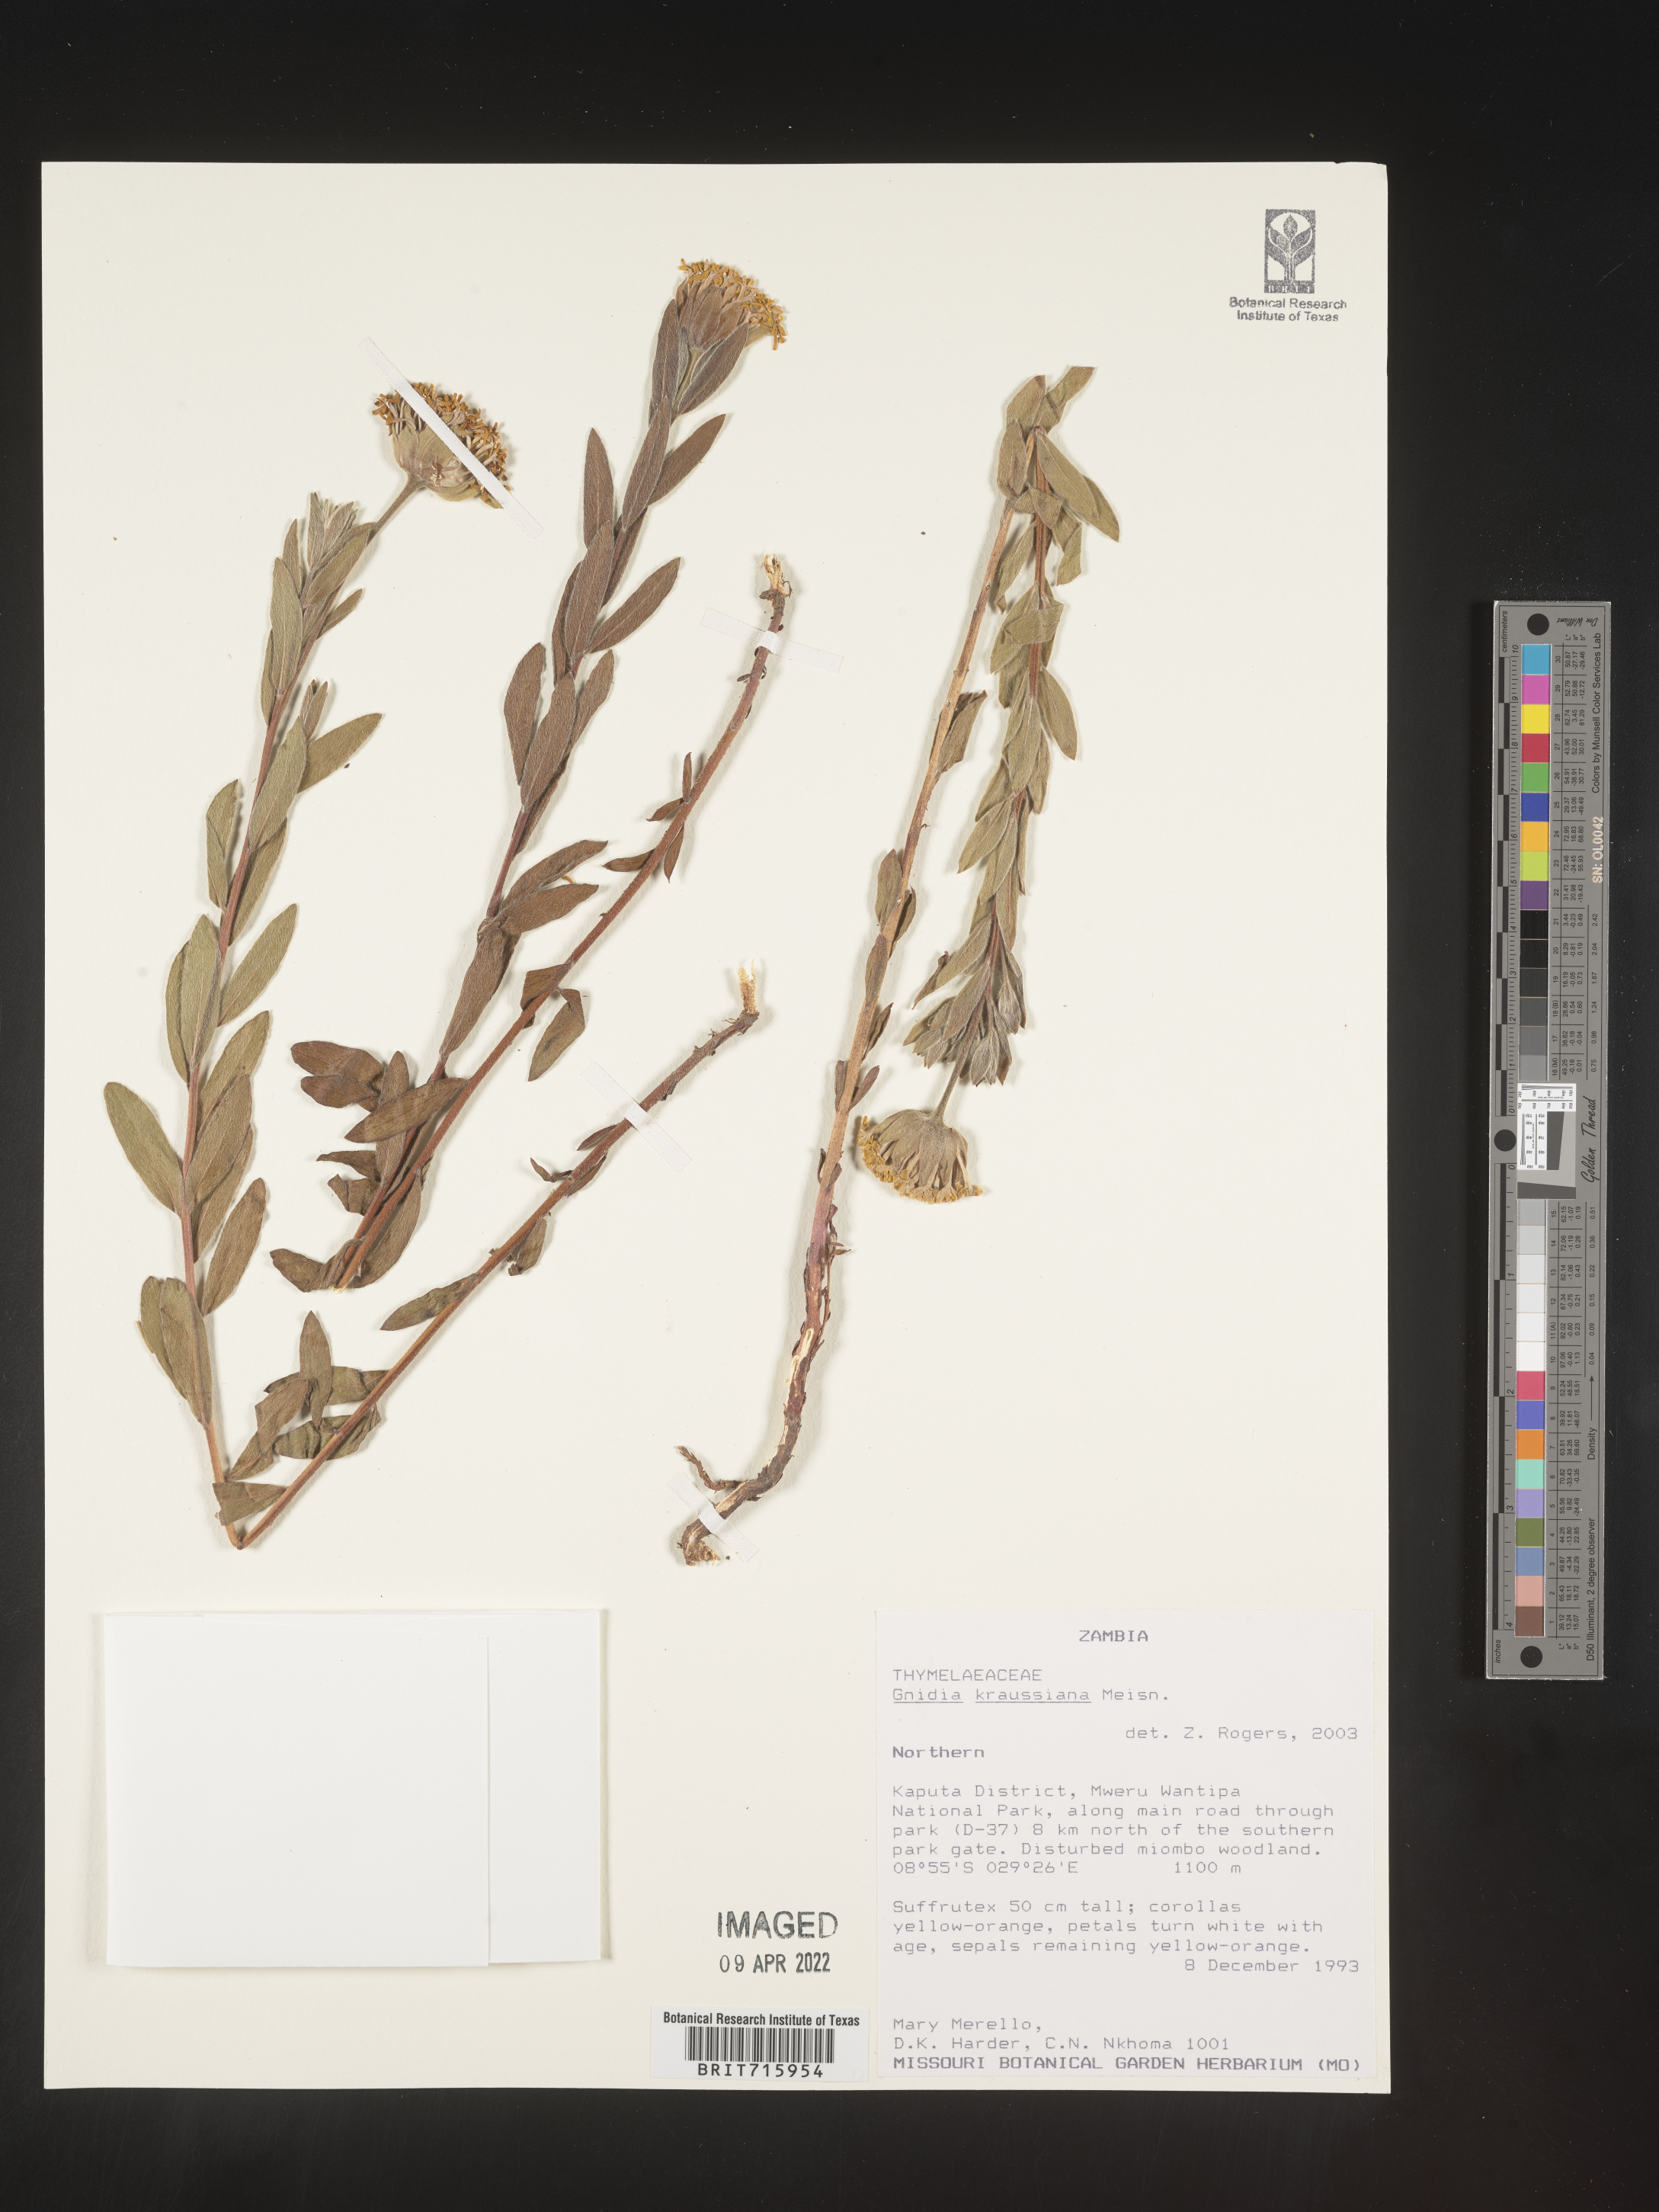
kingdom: Plantae
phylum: Tracheophyta
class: Magnoliopsida
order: Malvales
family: Thymelaeaceae
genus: Gnidia
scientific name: Gnidia
